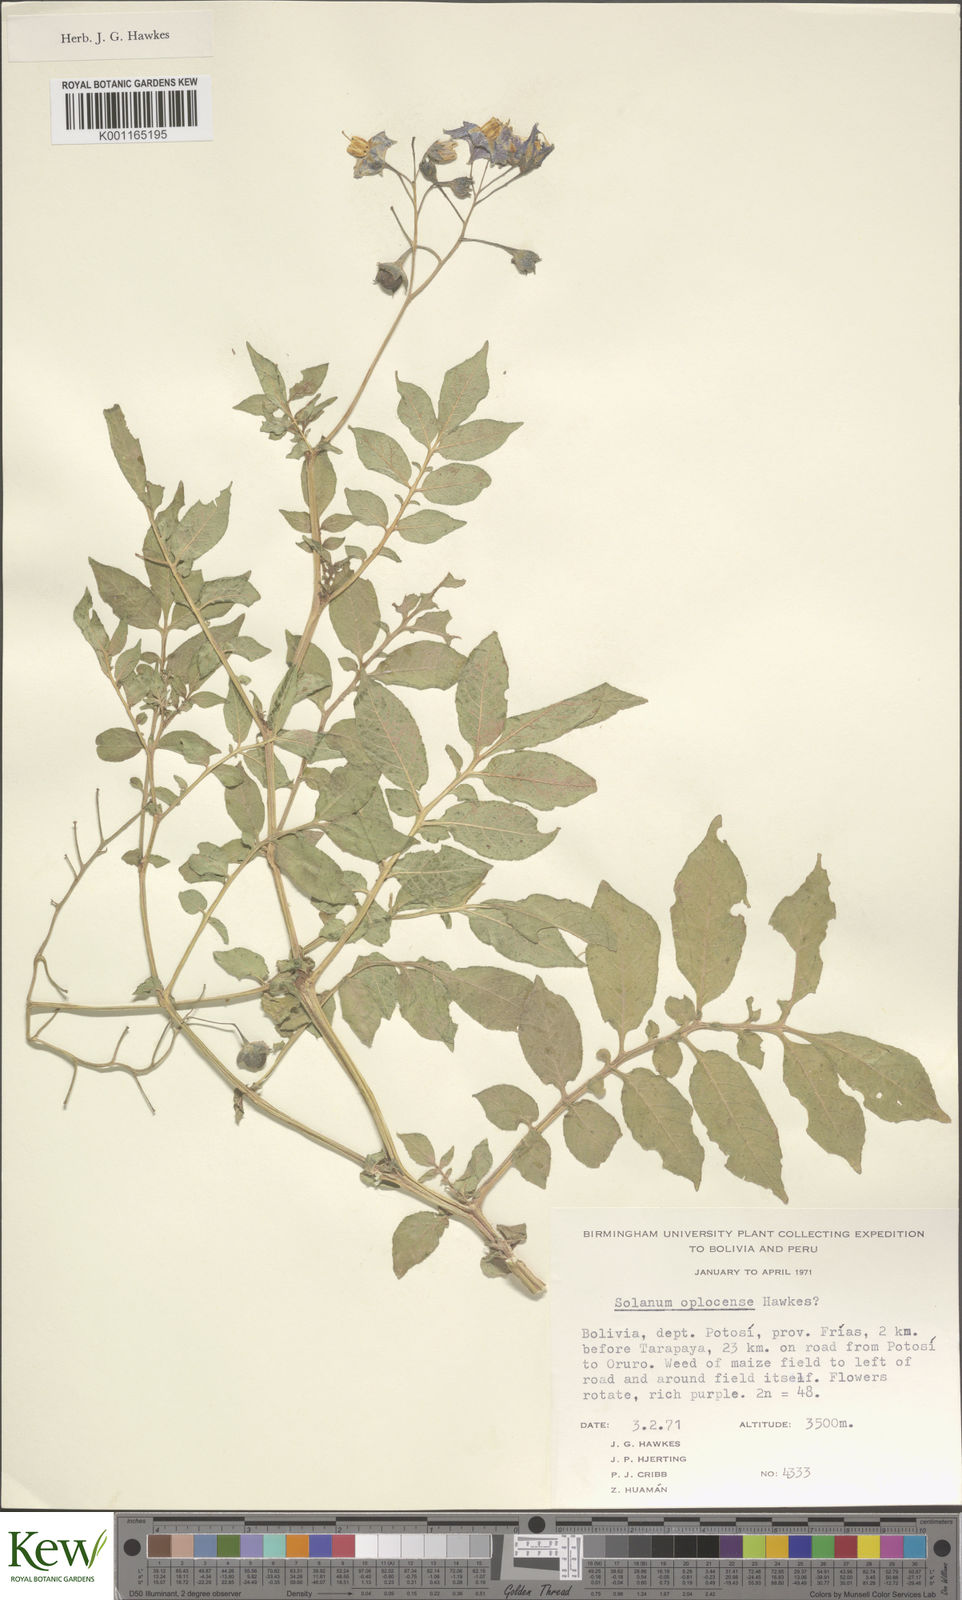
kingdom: Plantae
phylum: Tracheophyta
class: Magnoliopsida
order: Solanales
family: Solanaceae
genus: Solanum
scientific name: Solanum brevicaule
